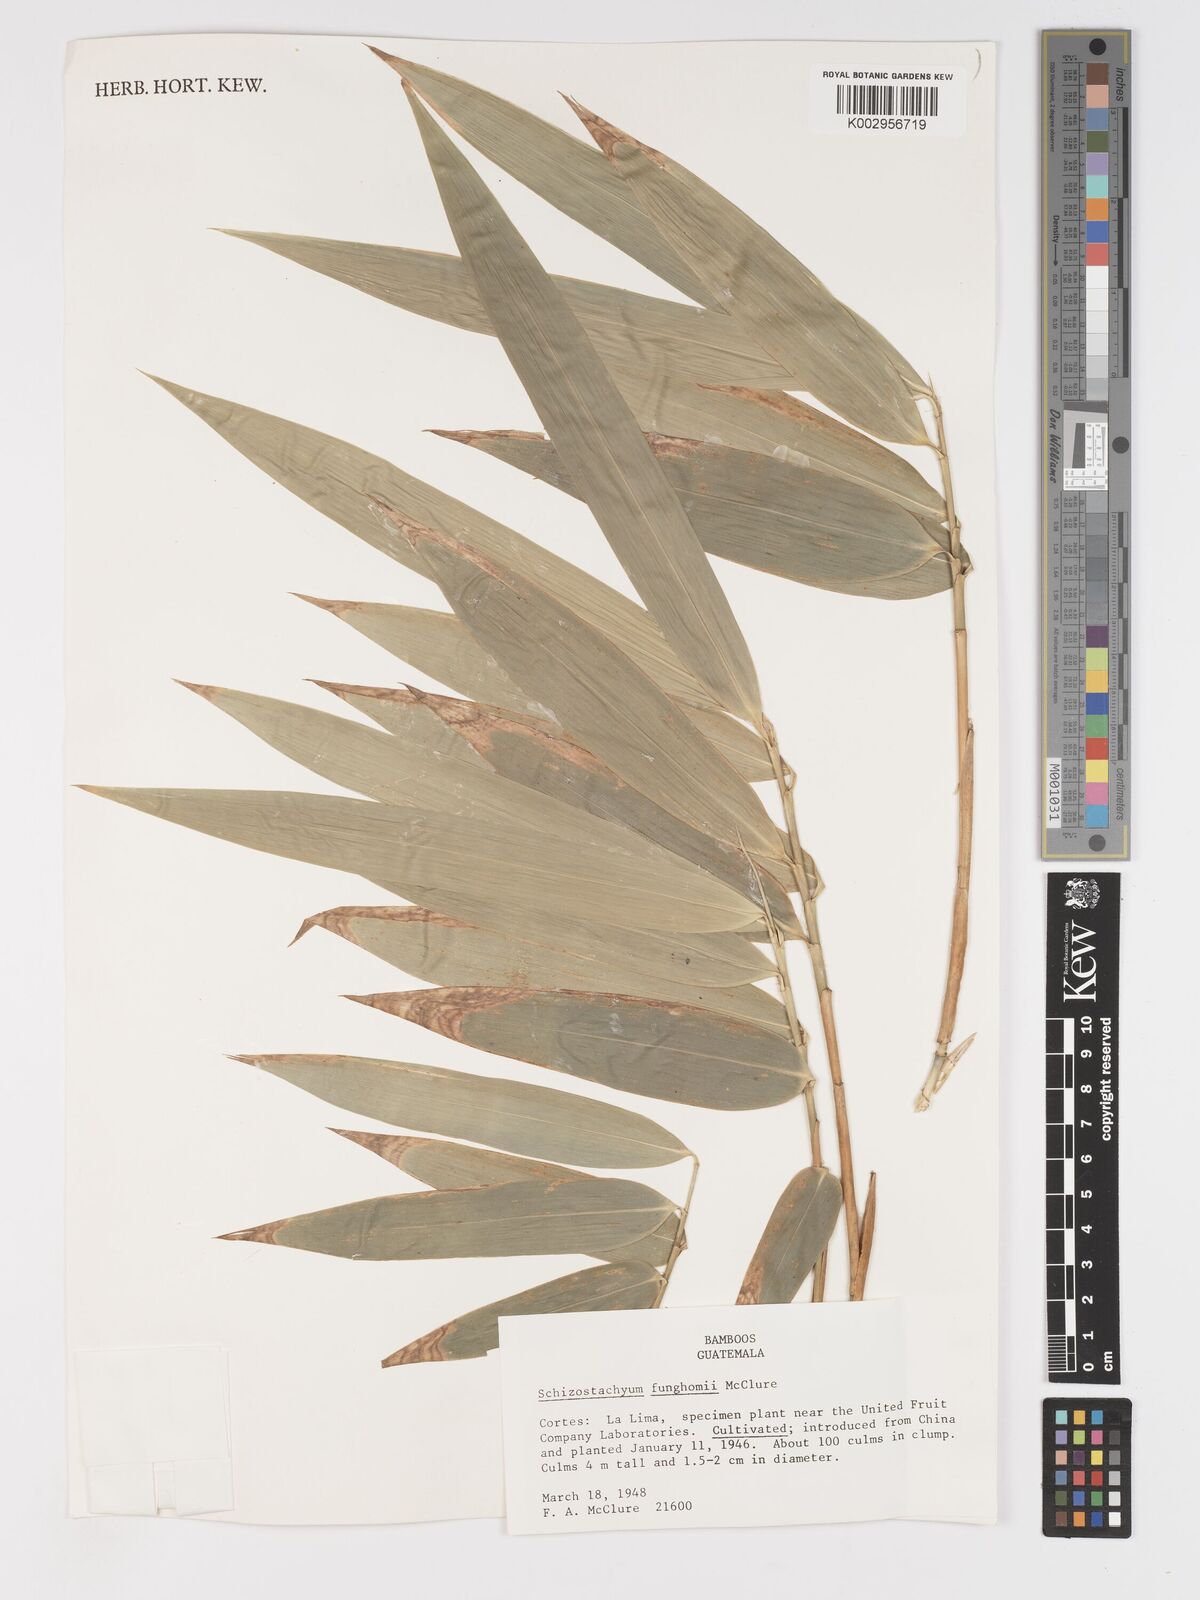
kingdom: Plantae
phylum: Tracheophyta
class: Liliopsida
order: Poales
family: Poaceae
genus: Schizostachyum
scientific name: Schizostachyum funghomii
